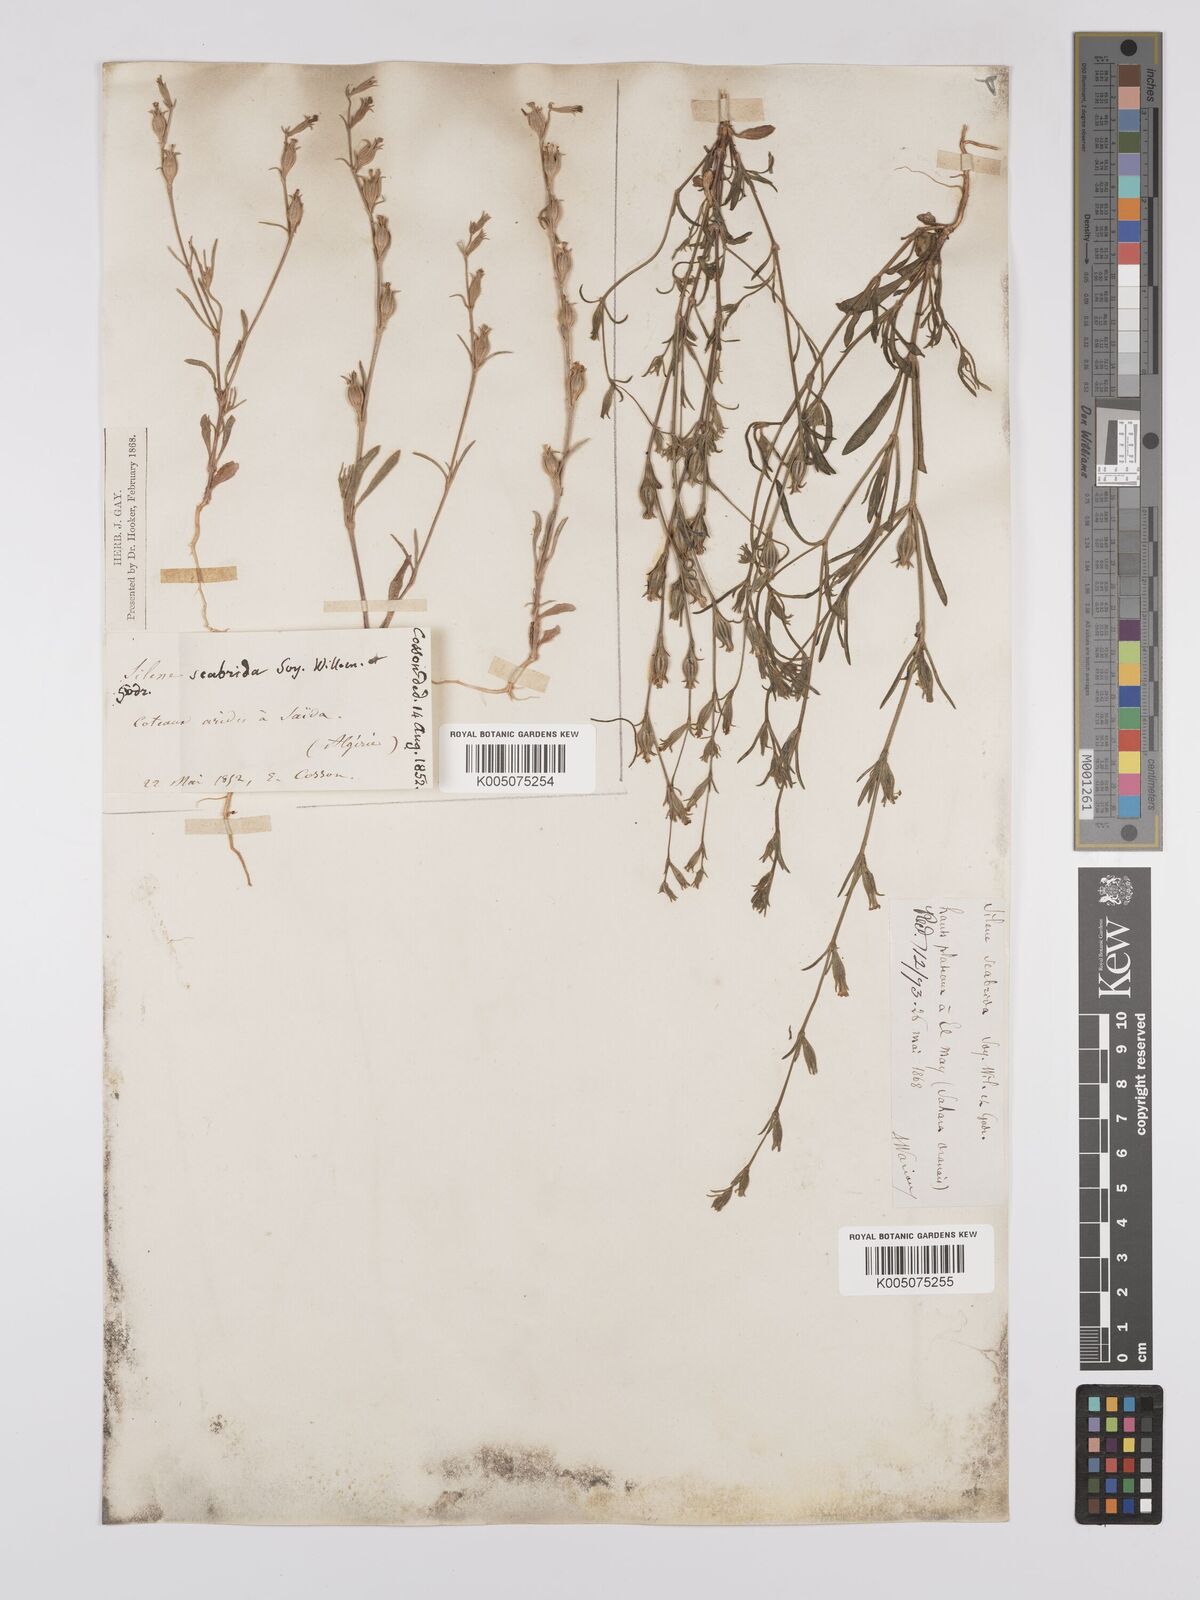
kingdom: Plantae
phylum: Tracheophyta
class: Magnoliopsida
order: Caryophyllales
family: Caryophyllaceae
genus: Silene
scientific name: Silene scabrida
